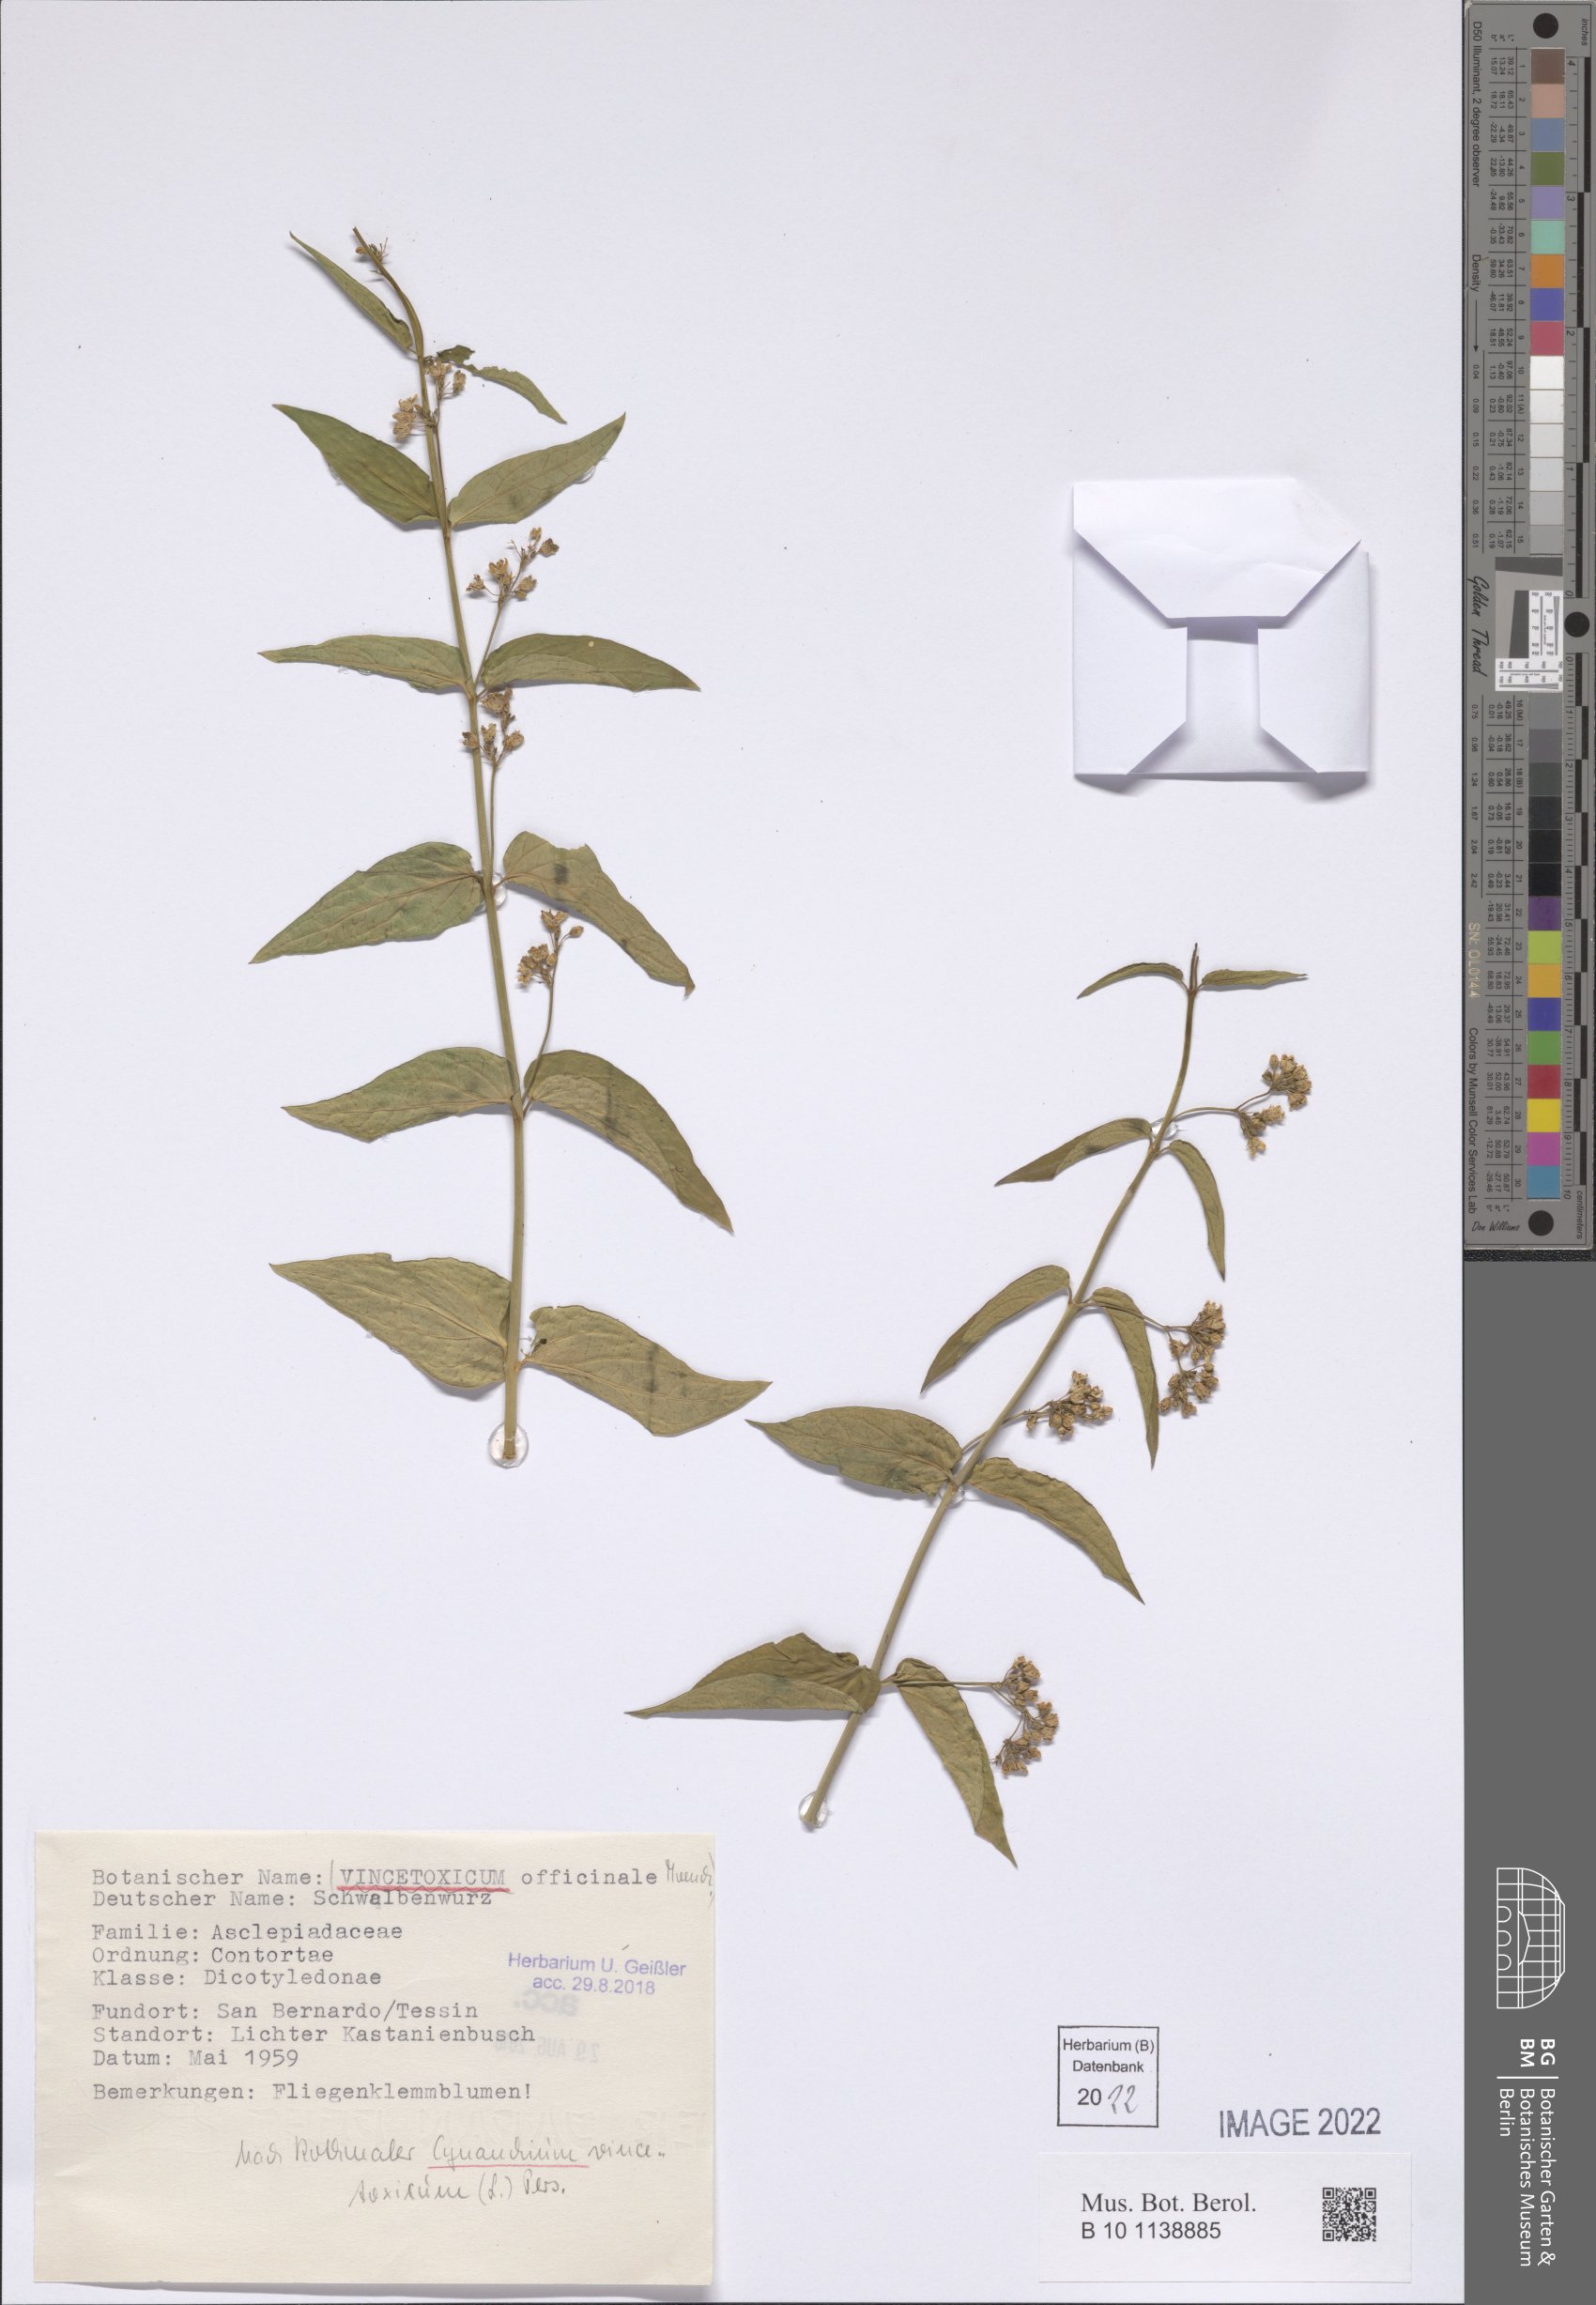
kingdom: Plantae
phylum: Tracheophyta
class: Magnoliopsida
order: Gentianales
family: Apocynaceae
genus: Vincetoxicum
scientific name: Vincetoxicum hirundinaria
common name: White swallowwort
